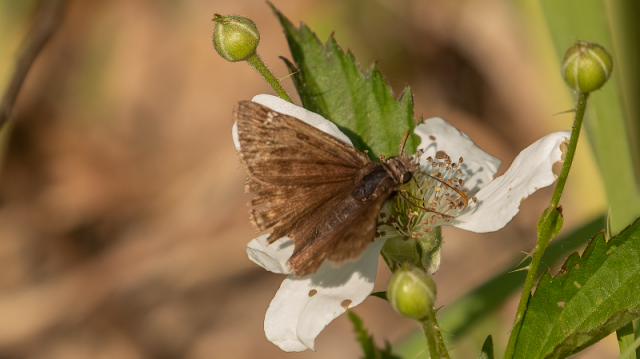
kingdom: Animalia
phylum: Arthropoda
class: Insecta
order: Lepidoptera
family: Hesperiidae
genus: Gesta
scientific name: Gesta
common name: Juvenal's Duskywing
